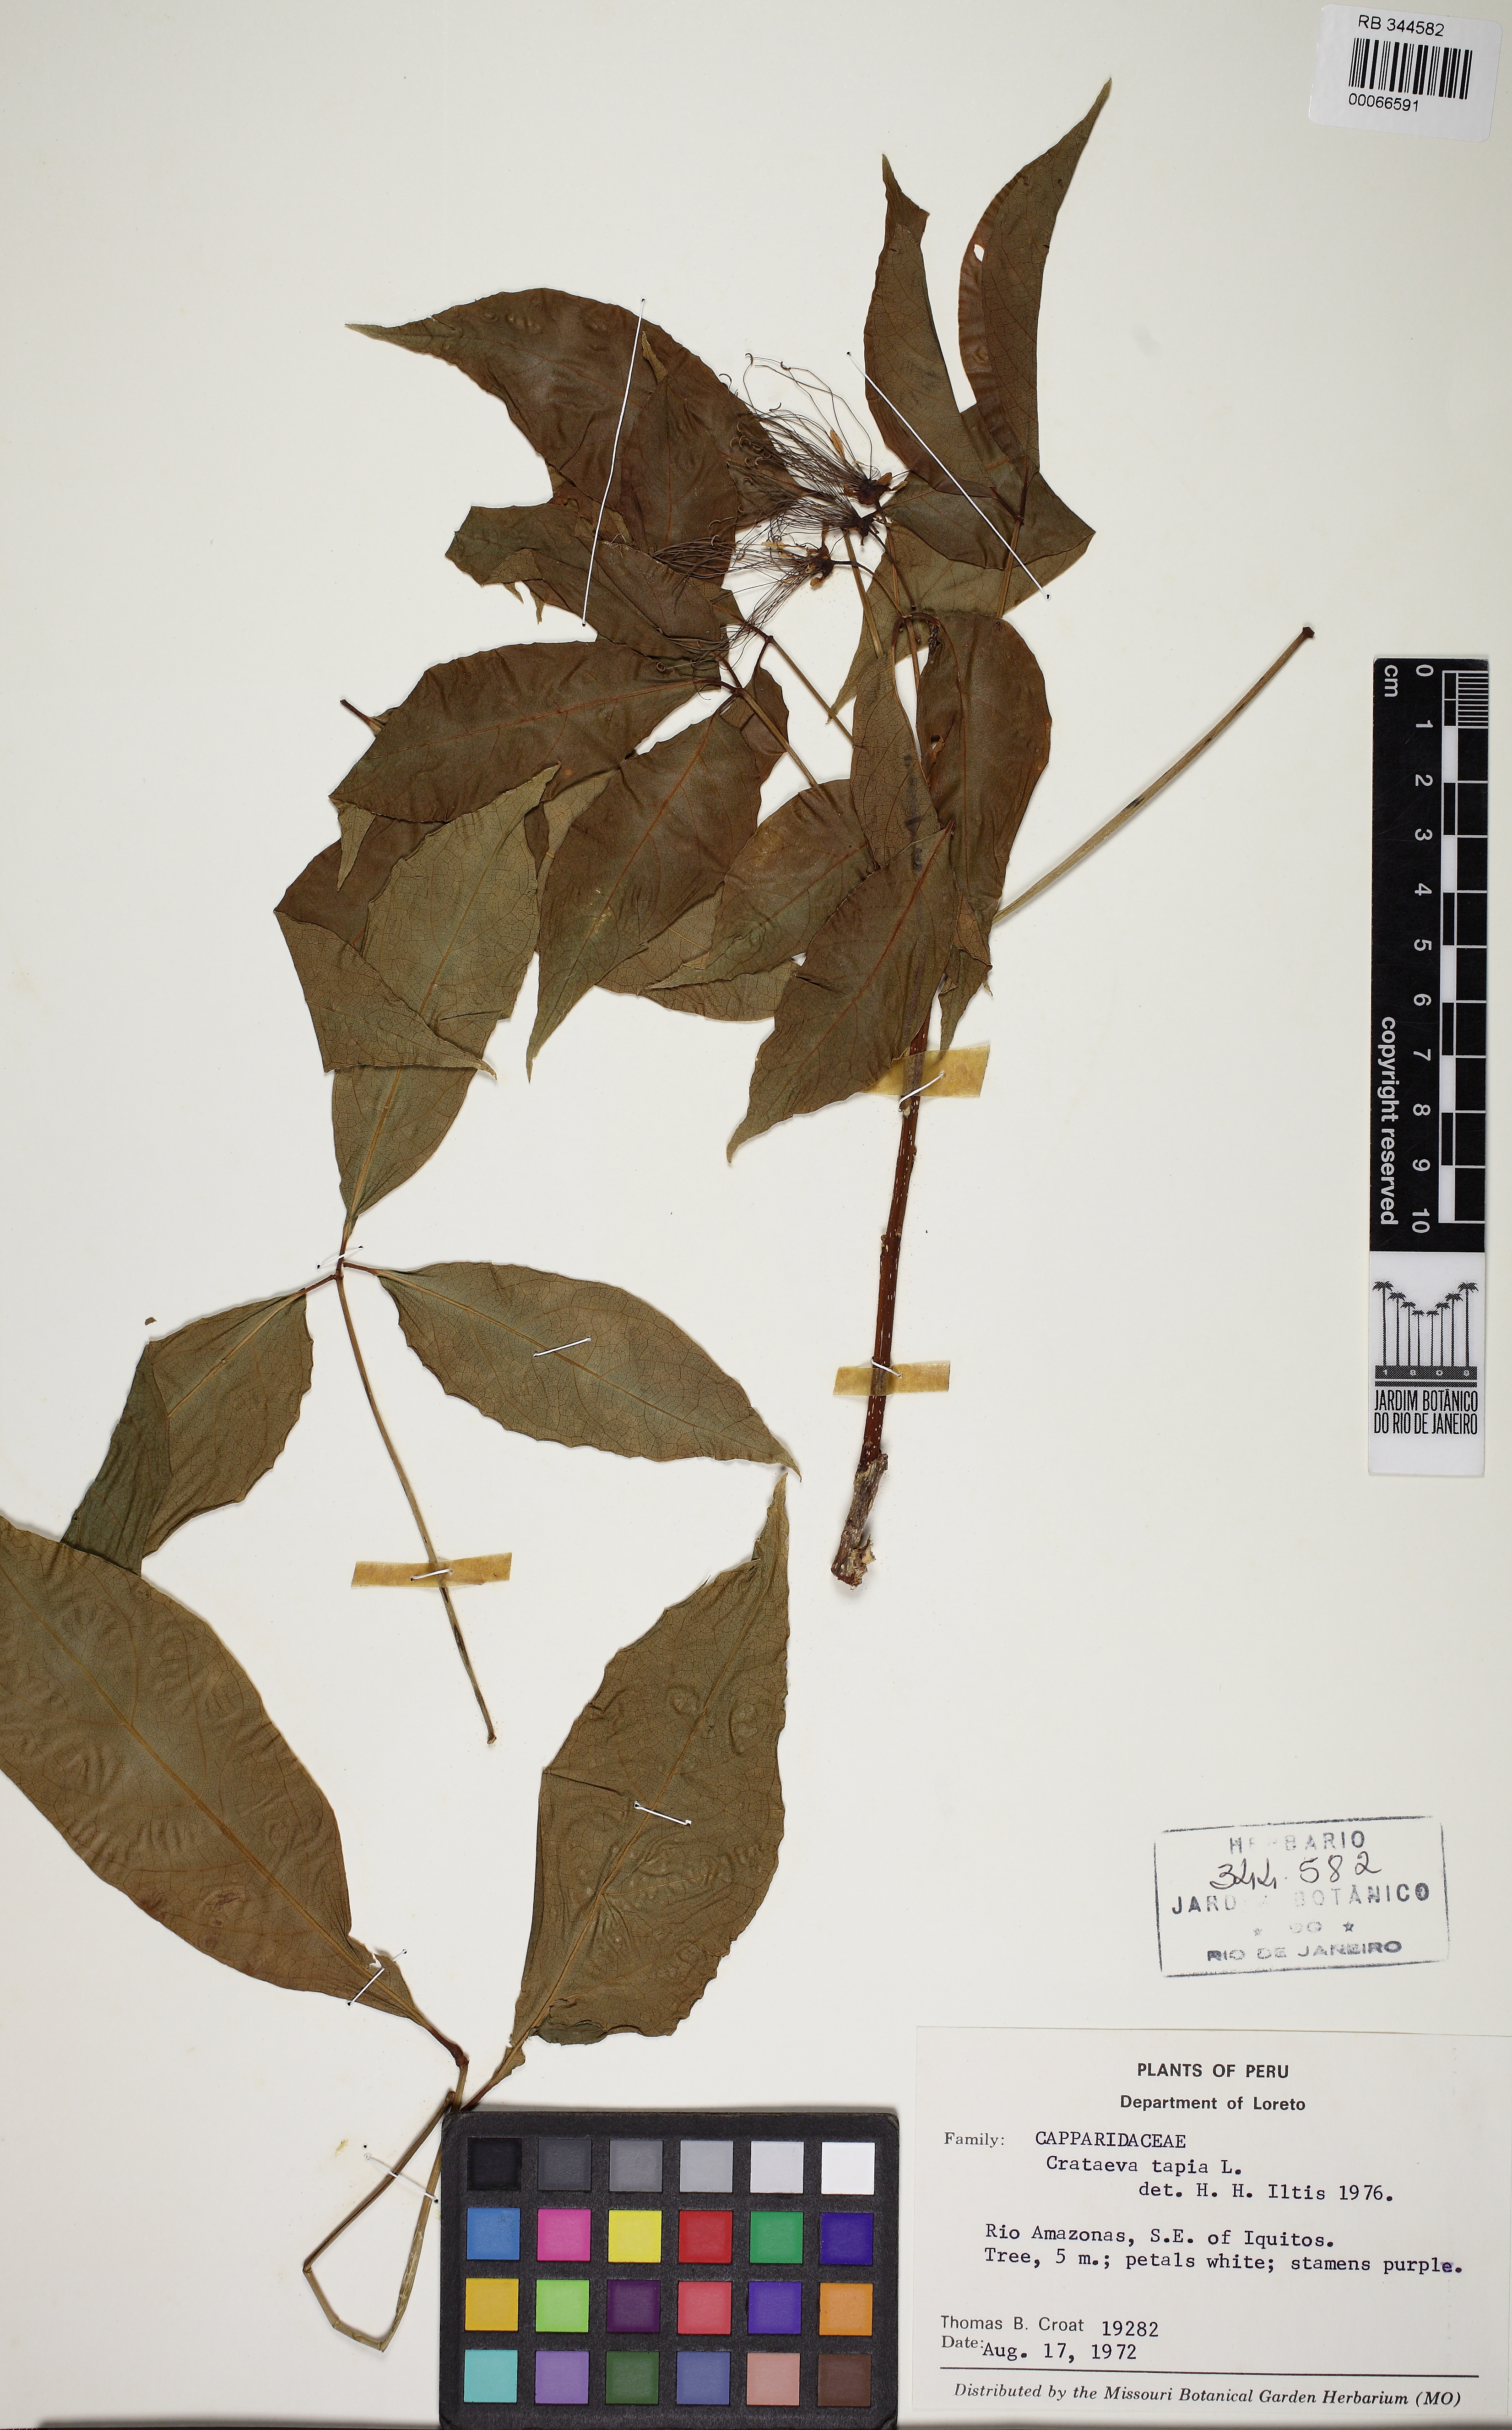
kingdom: Plantae
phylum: Tracheophyta
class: Magnoliopsida
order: Brassicales
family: Capparaceae
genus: Crateva
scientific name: Crateva tapia
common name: Garlic-pear
